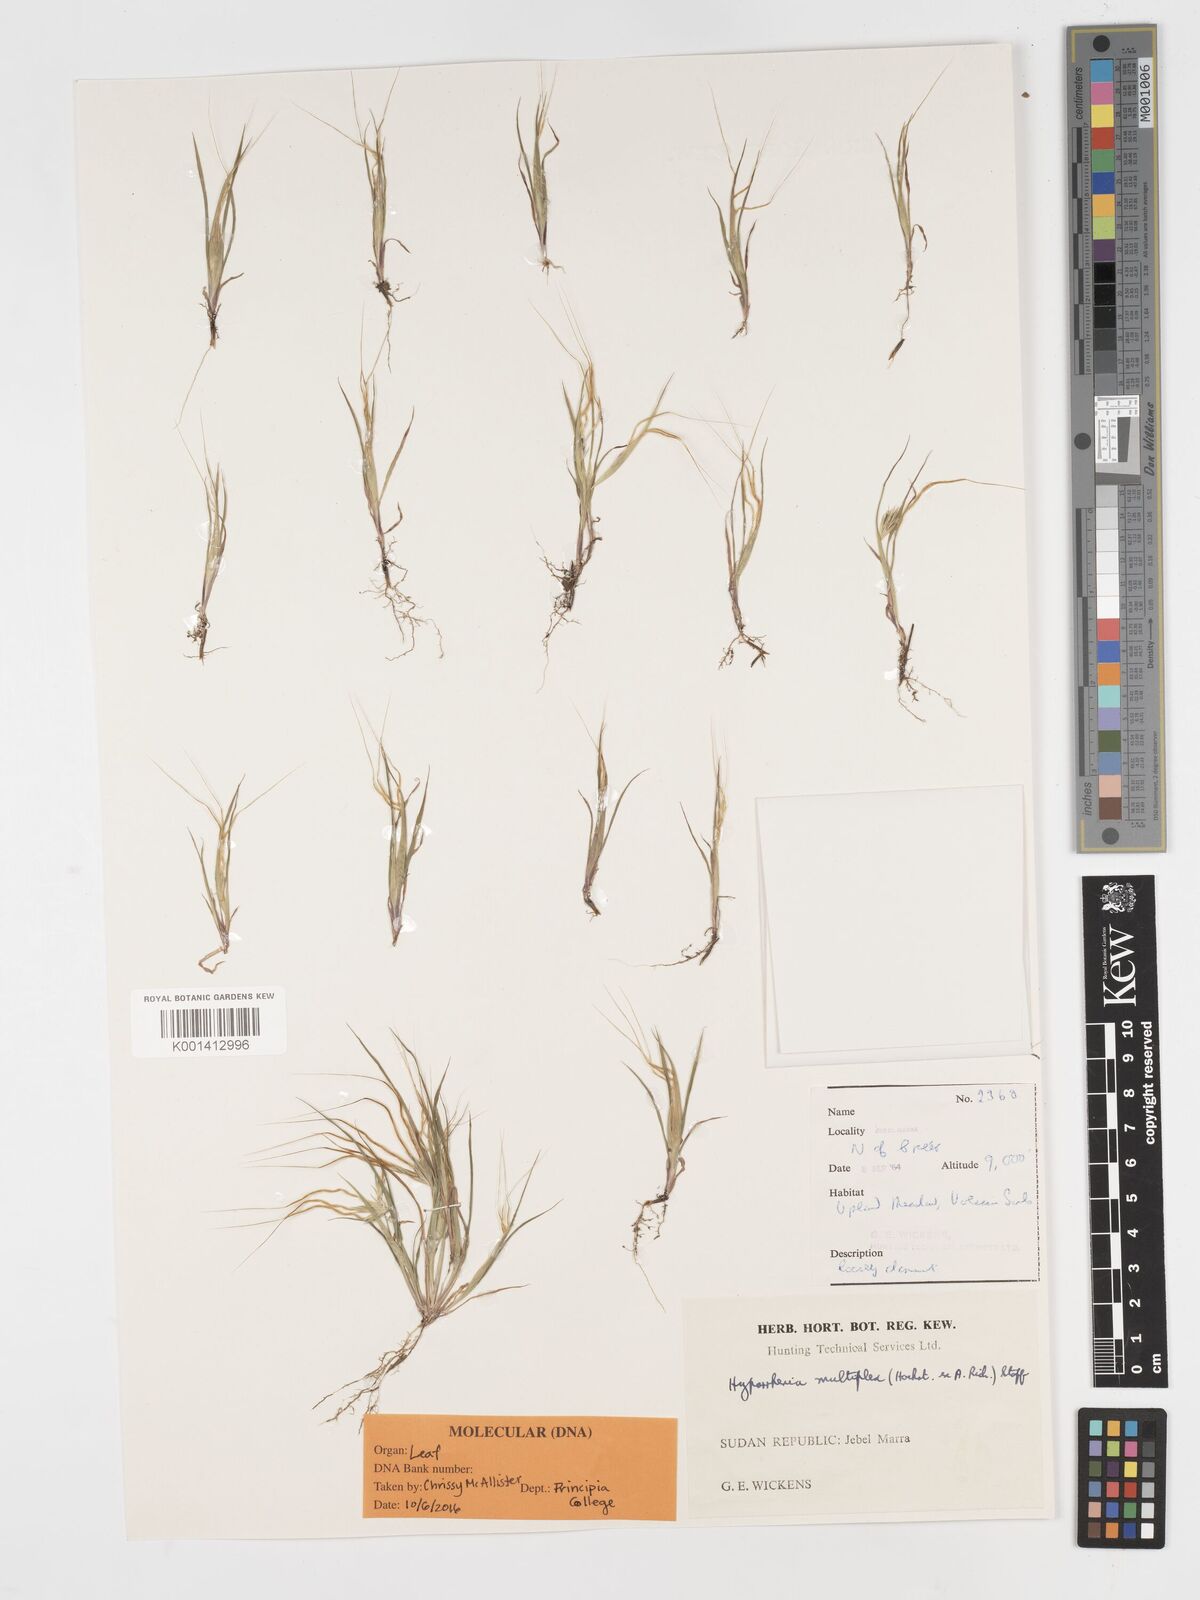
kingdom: Plantae
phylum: Tracheophyta
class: Liliopsida
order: Poales
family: Poaceae
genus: Hyparrhenia
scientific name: Hyparrhenia multiplex
